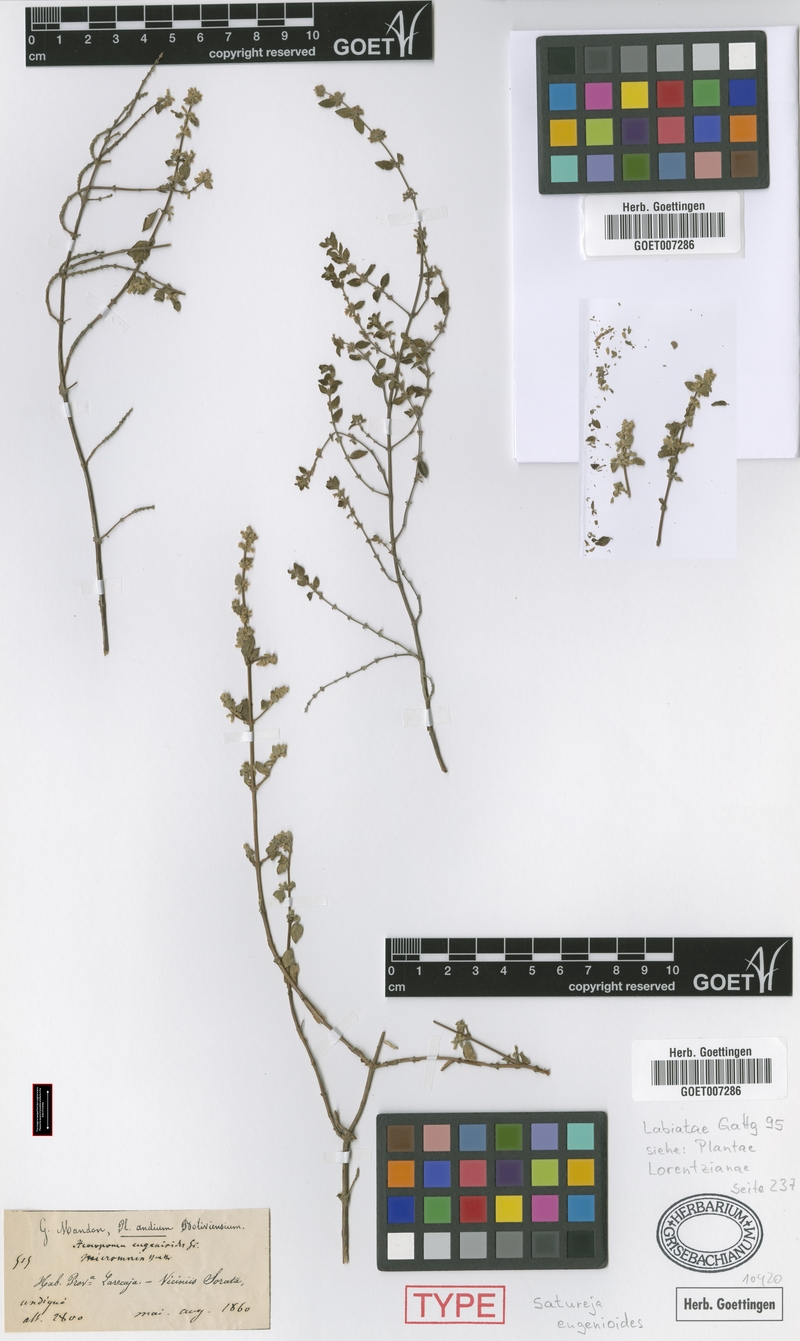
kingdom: Plantae
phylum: Tracheophyta
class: Magnoliopsida
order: Lamiales
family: Lamiaceae
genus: Clinopodium
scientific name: Clinopodium gilliesii
